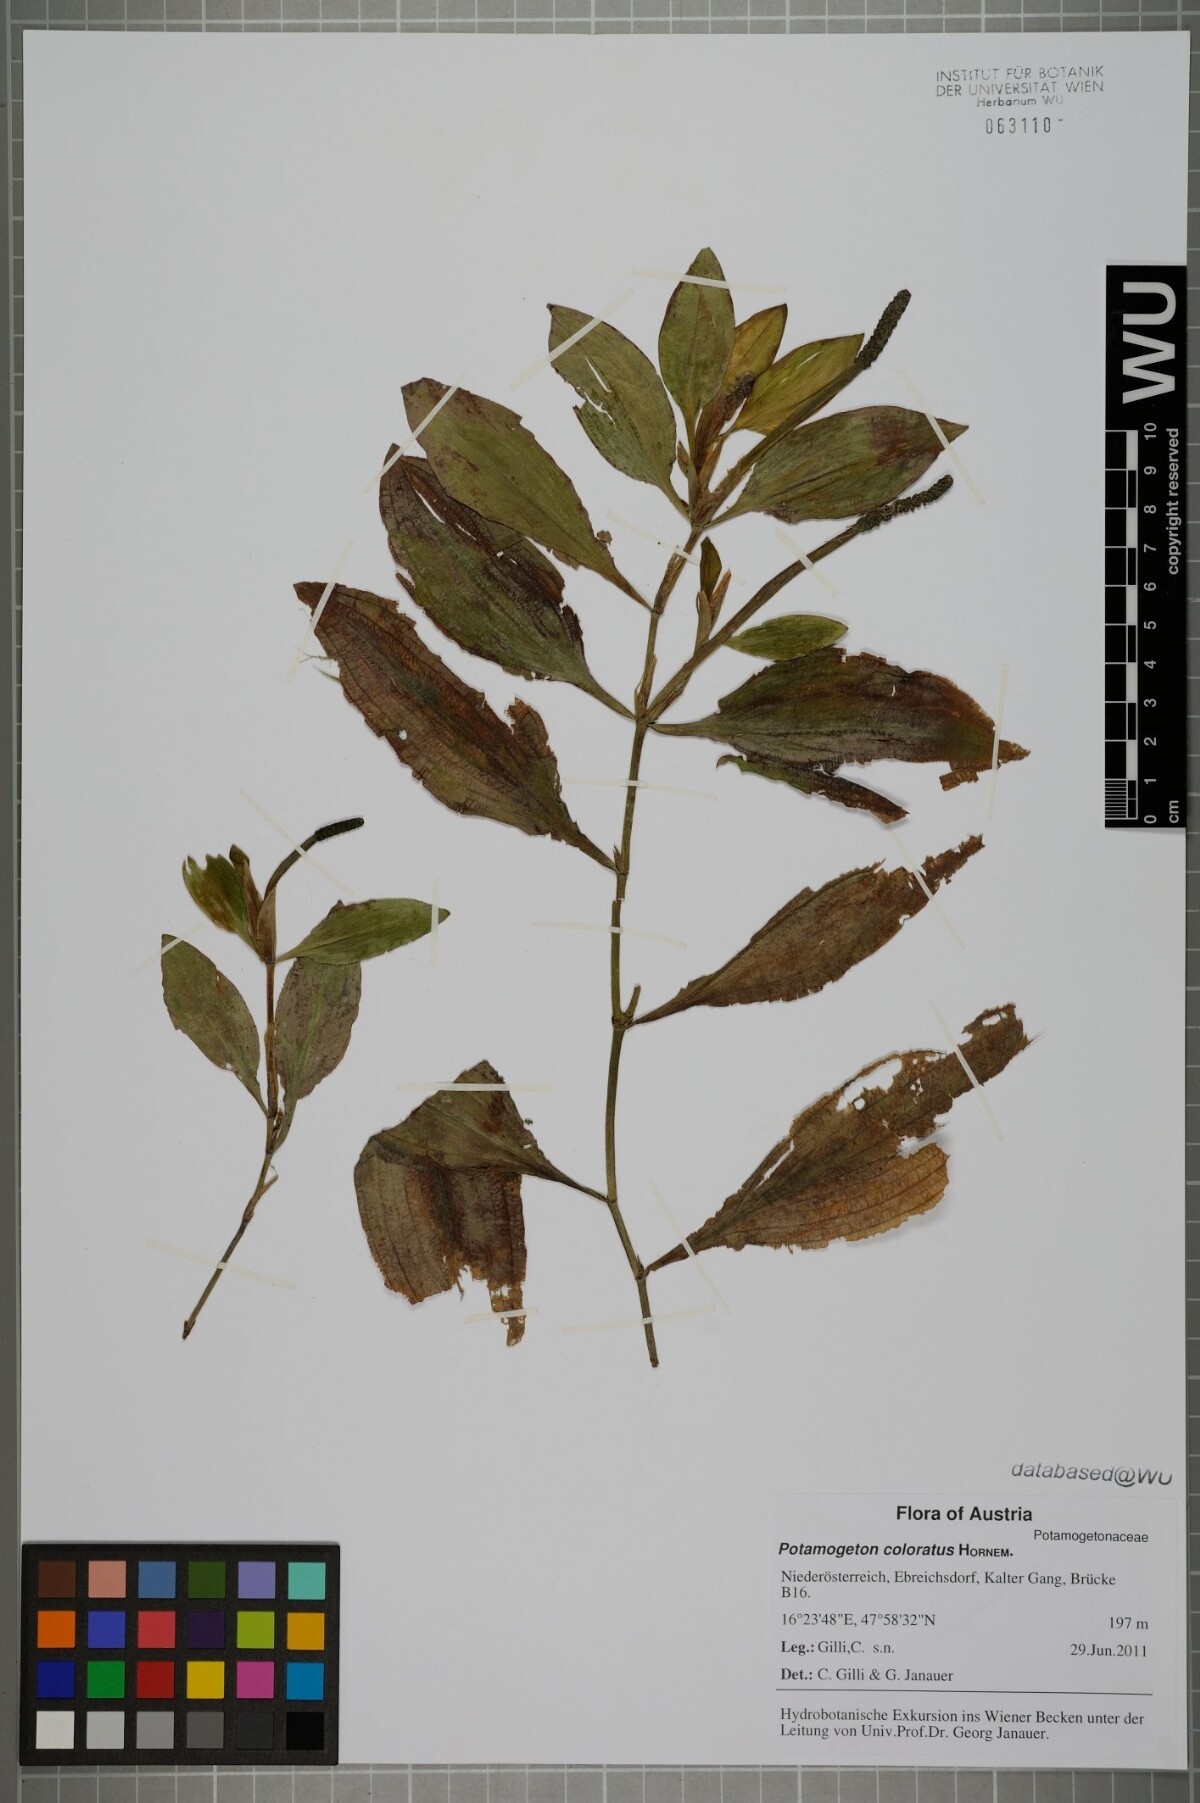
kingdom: Plantae
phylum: Tracheophyta
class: Liliopsida
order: Alismatales
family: Potamogetonaceae
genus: Potamogeton
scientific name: Potamogeton coloratus
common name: Fen pondweed
